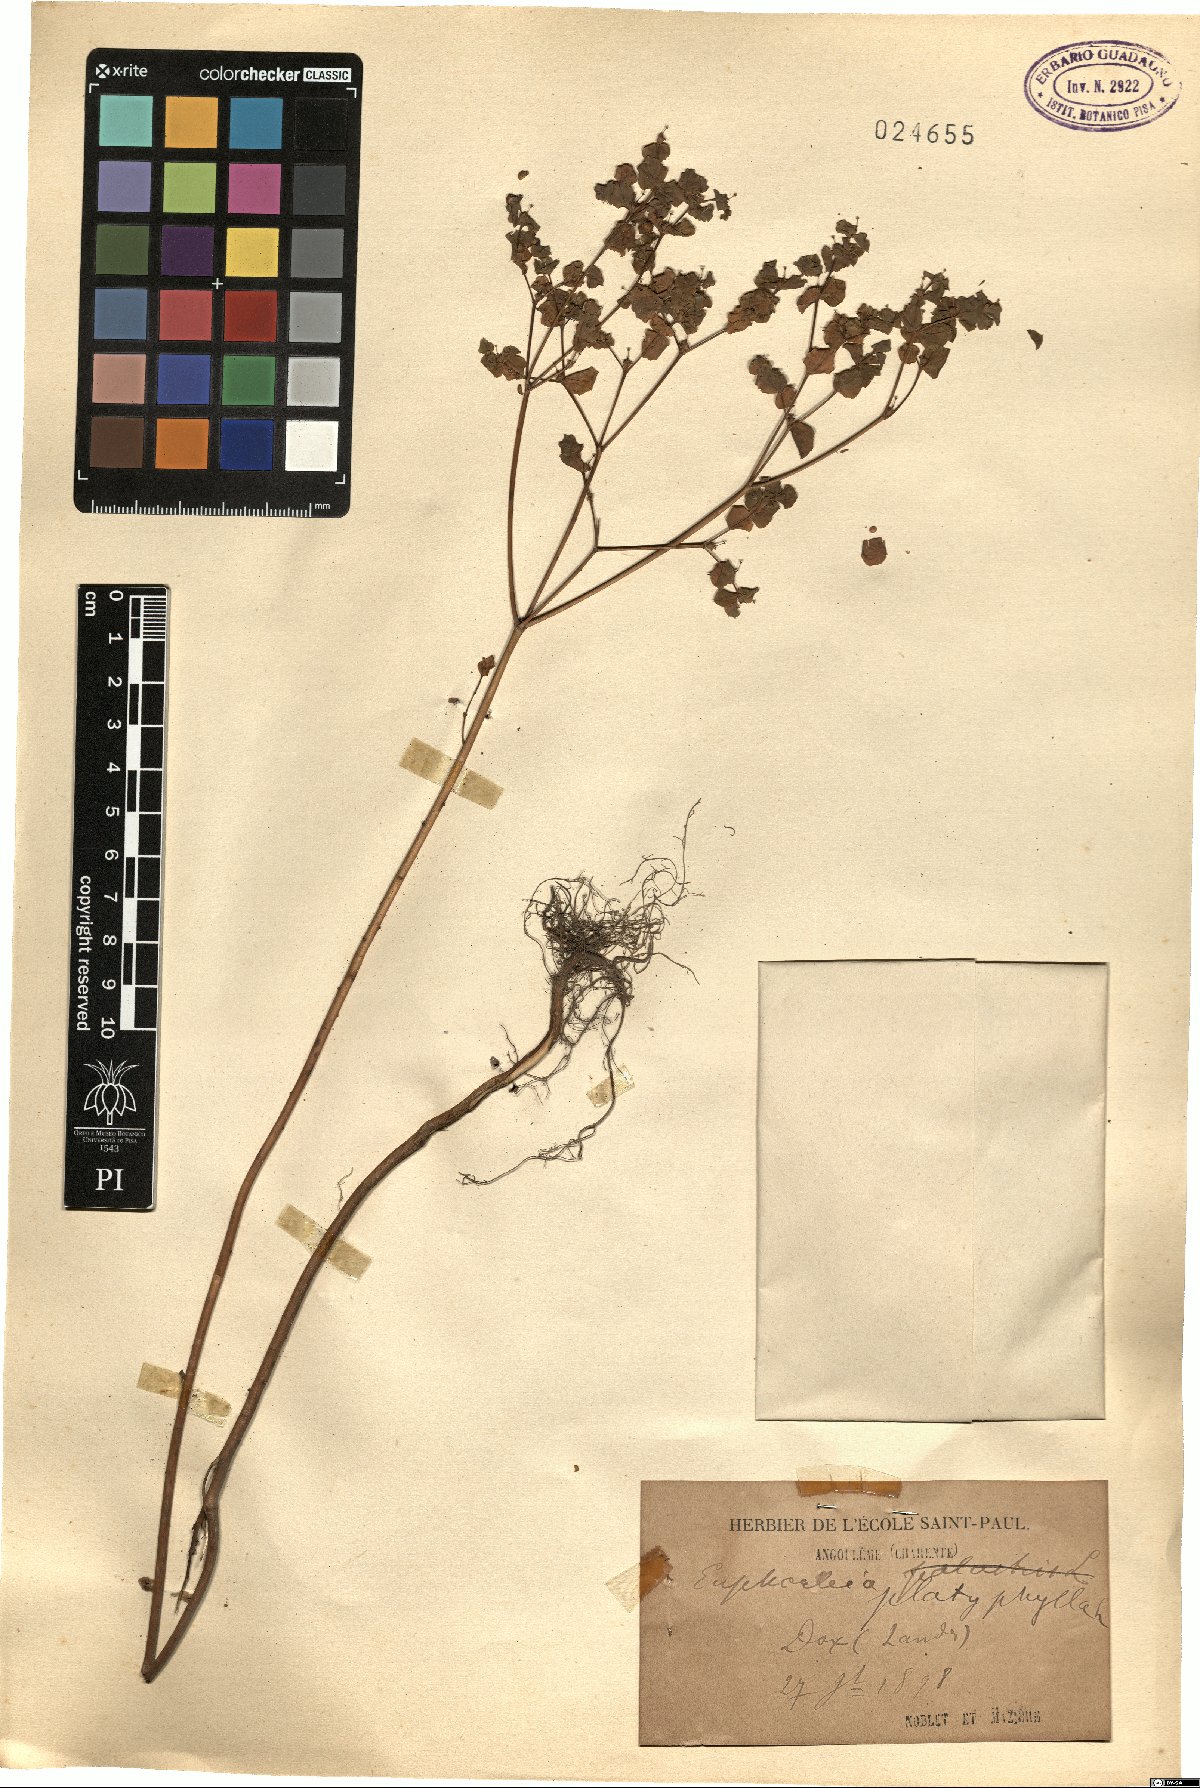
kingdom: Plantae
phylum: Tracheophyta
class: Magnoliopsida
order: Malpighiales
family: Euphorbiaceae
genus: Euphorbia
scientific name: Euphorbia platyphyllos
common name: Broad-leaved spurge
